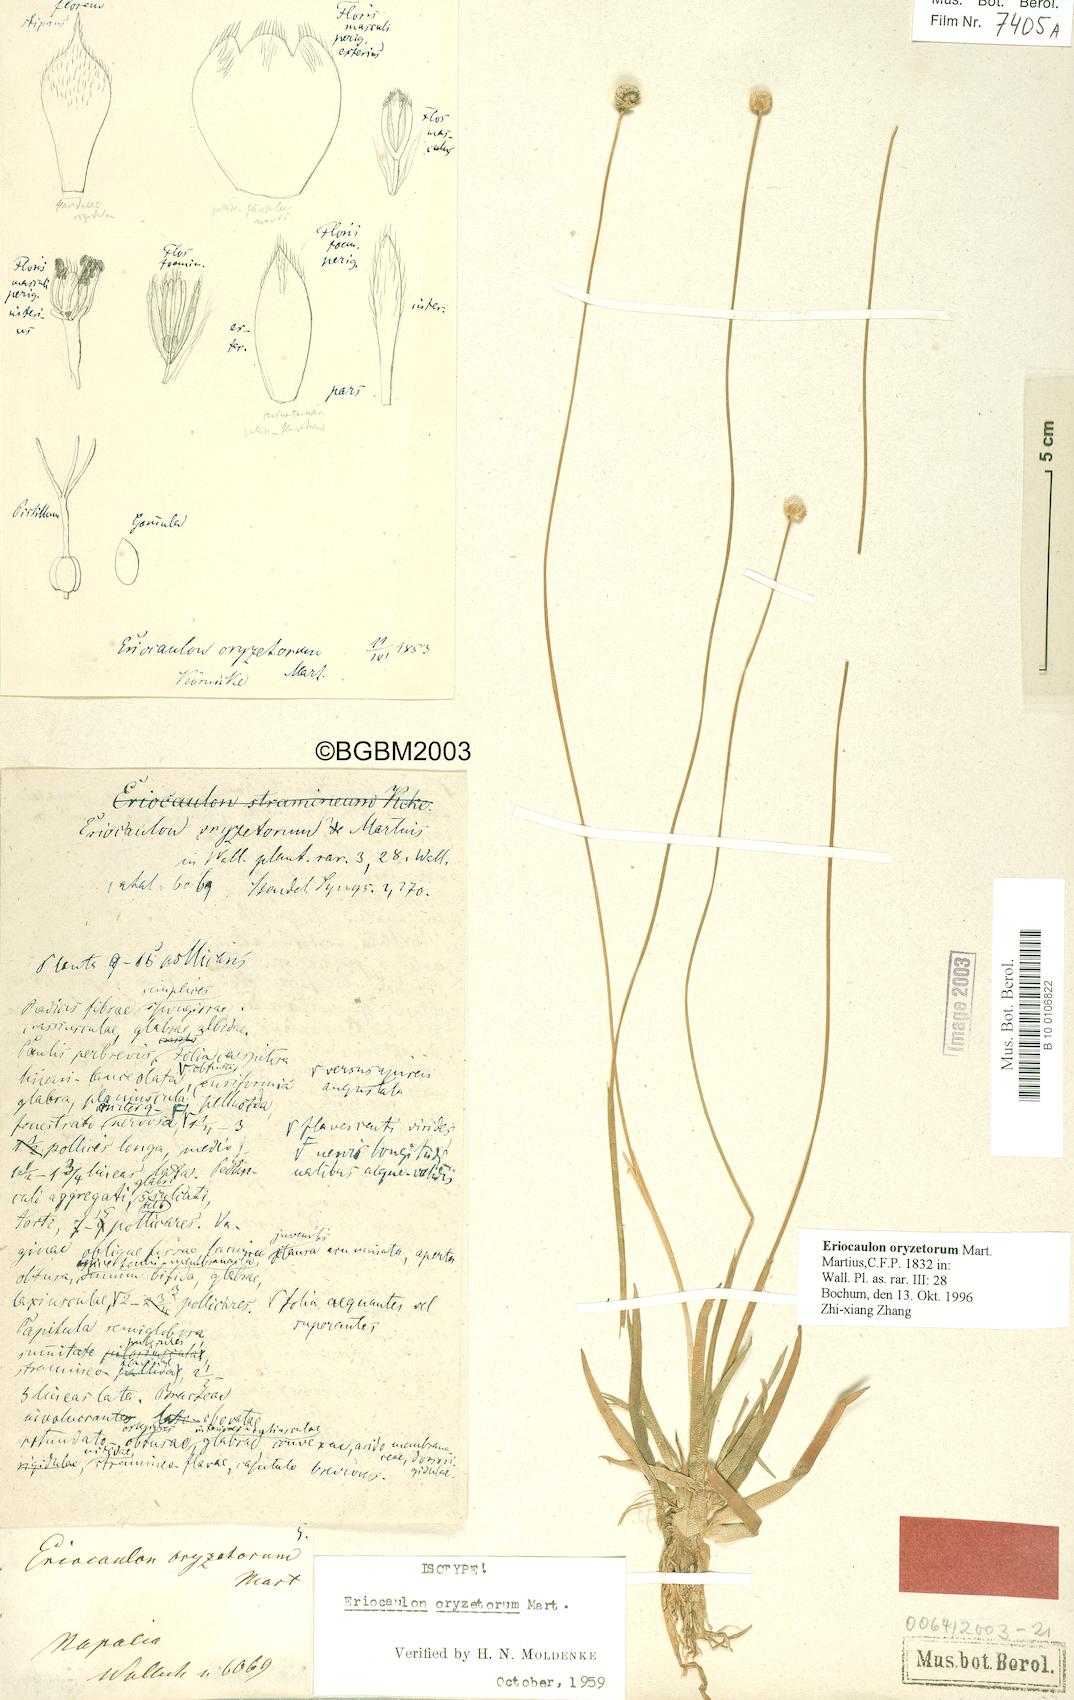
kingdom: Plantae
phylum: Tracheophyta
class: Liliopsida
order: Poales
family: Eriocaulaceae
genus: Eriocaulon
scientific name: Eriocaulon oryzetorum
